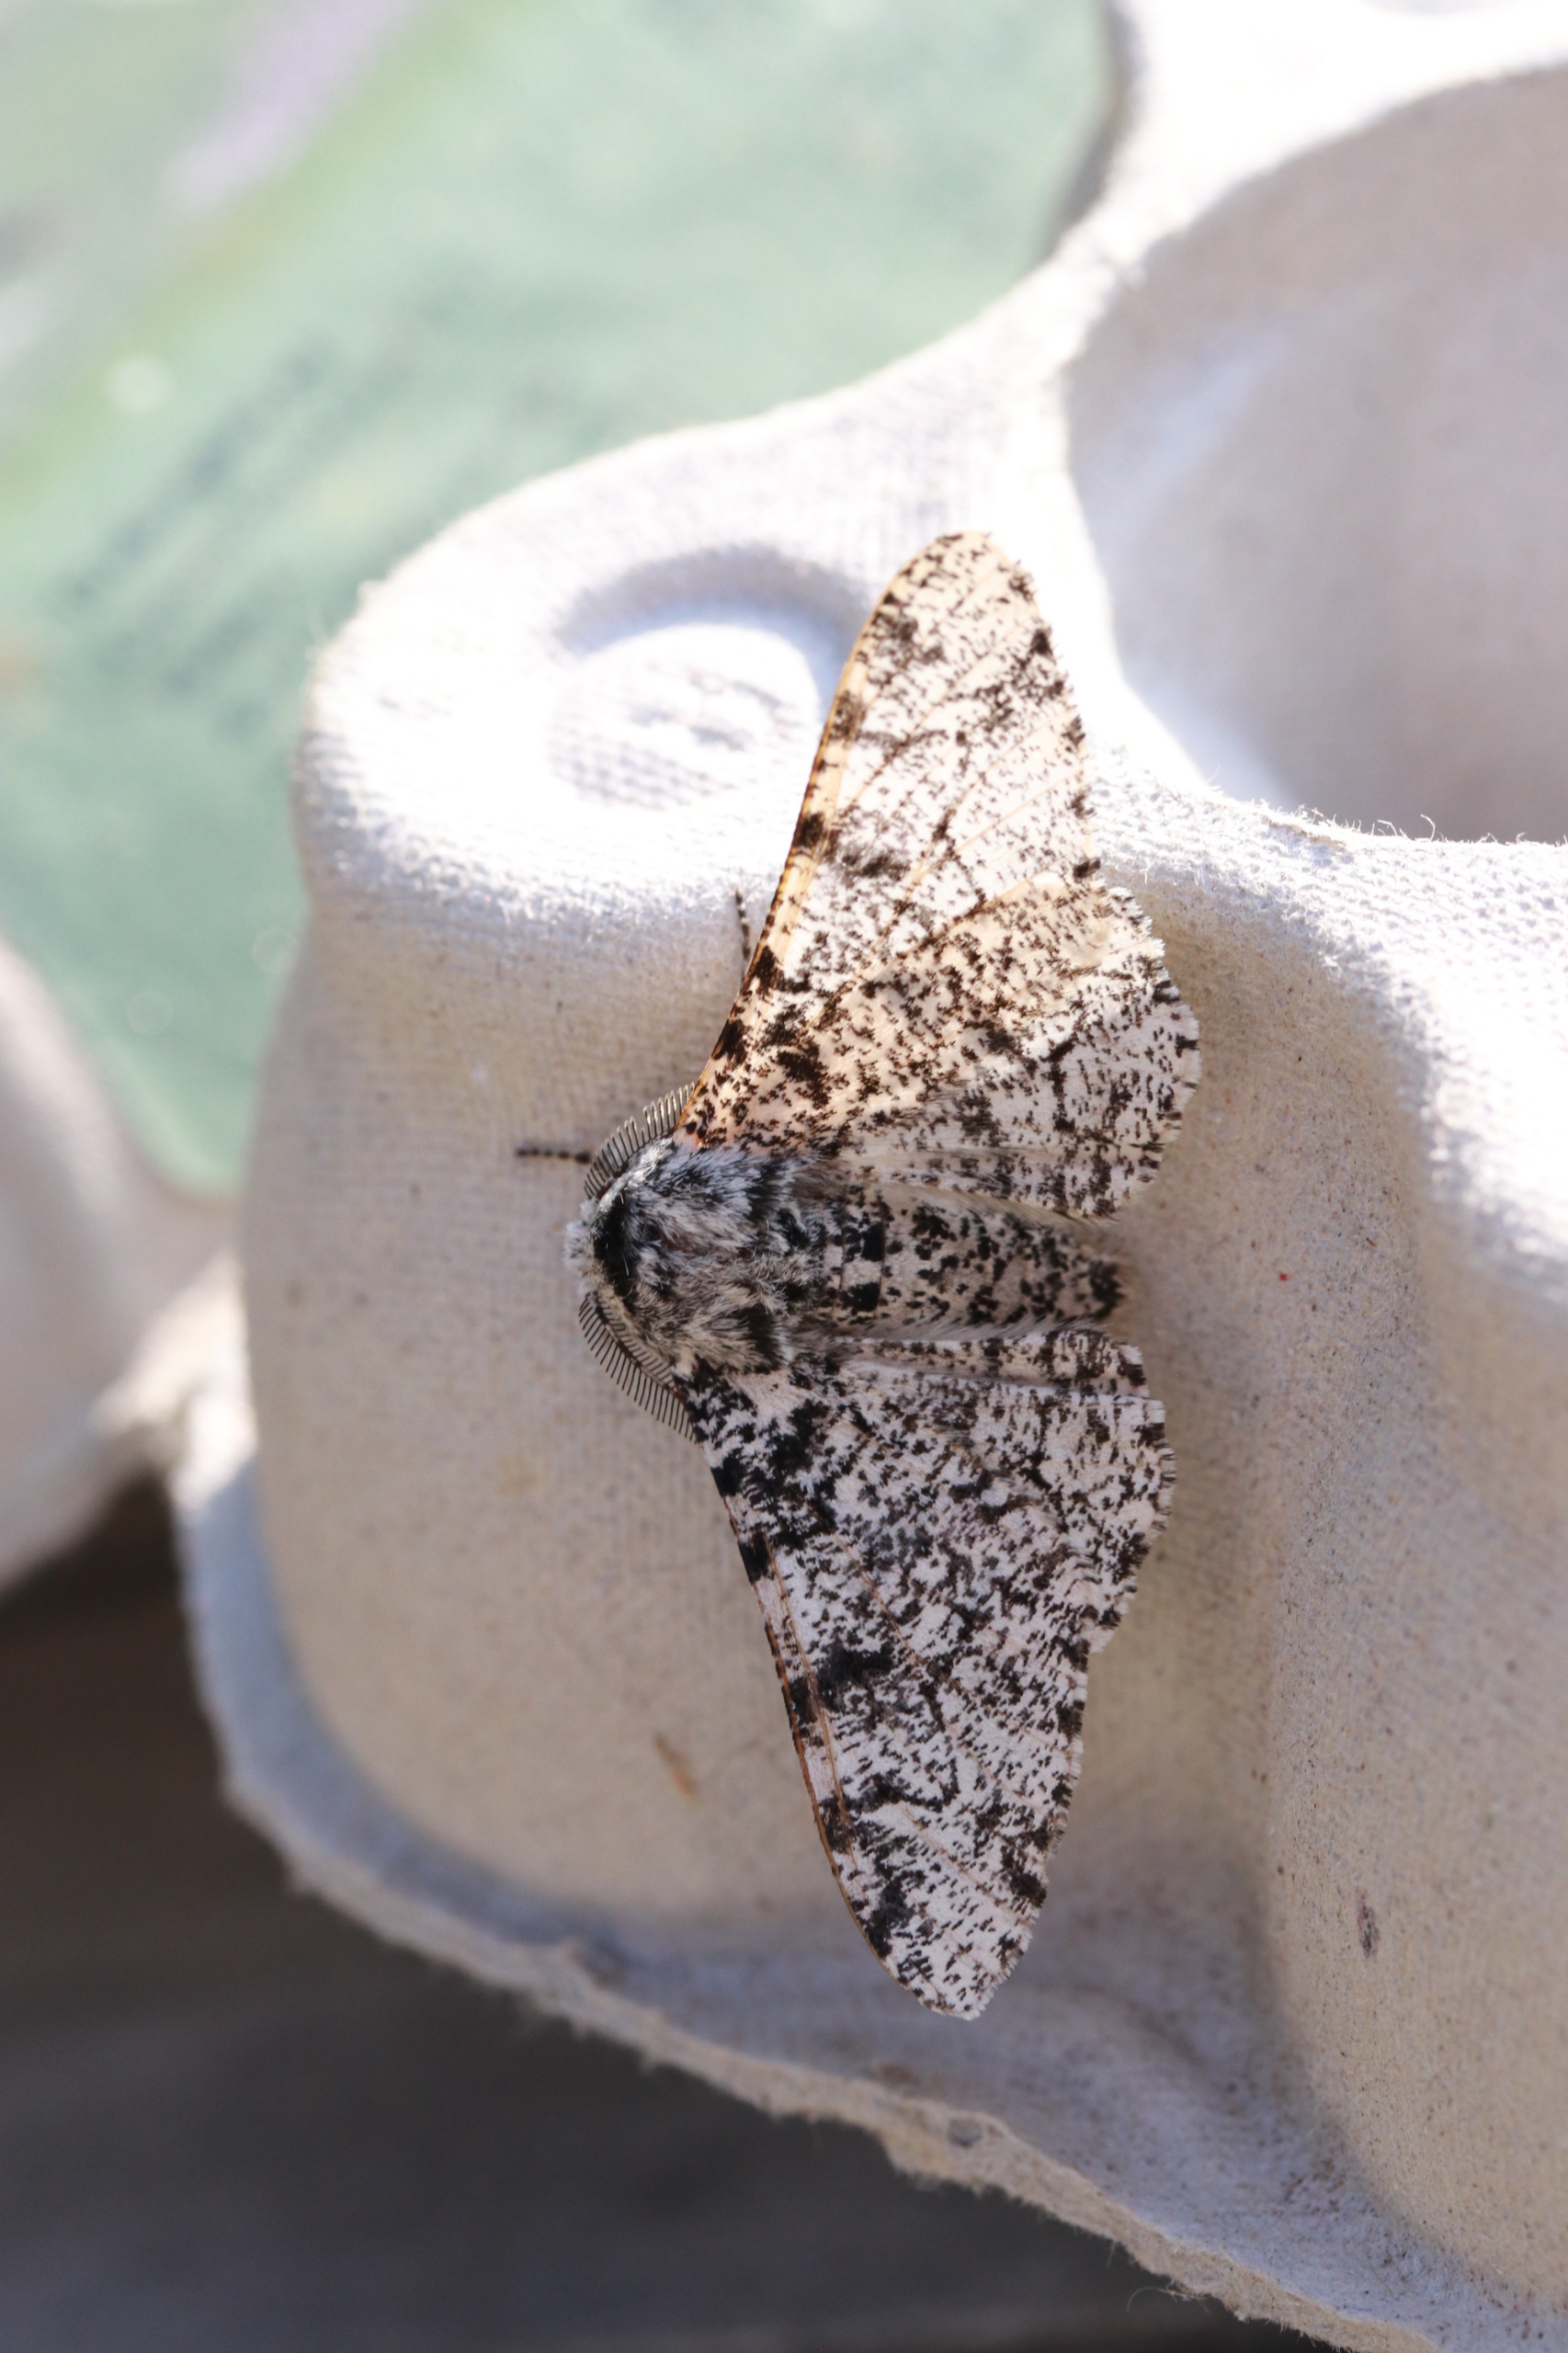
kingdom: Animalia
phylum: Arthropoda
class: Insecta
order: Lepidoptera
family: Geometridae
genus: Biston
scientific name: Biston betularia
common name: Birkemåler
